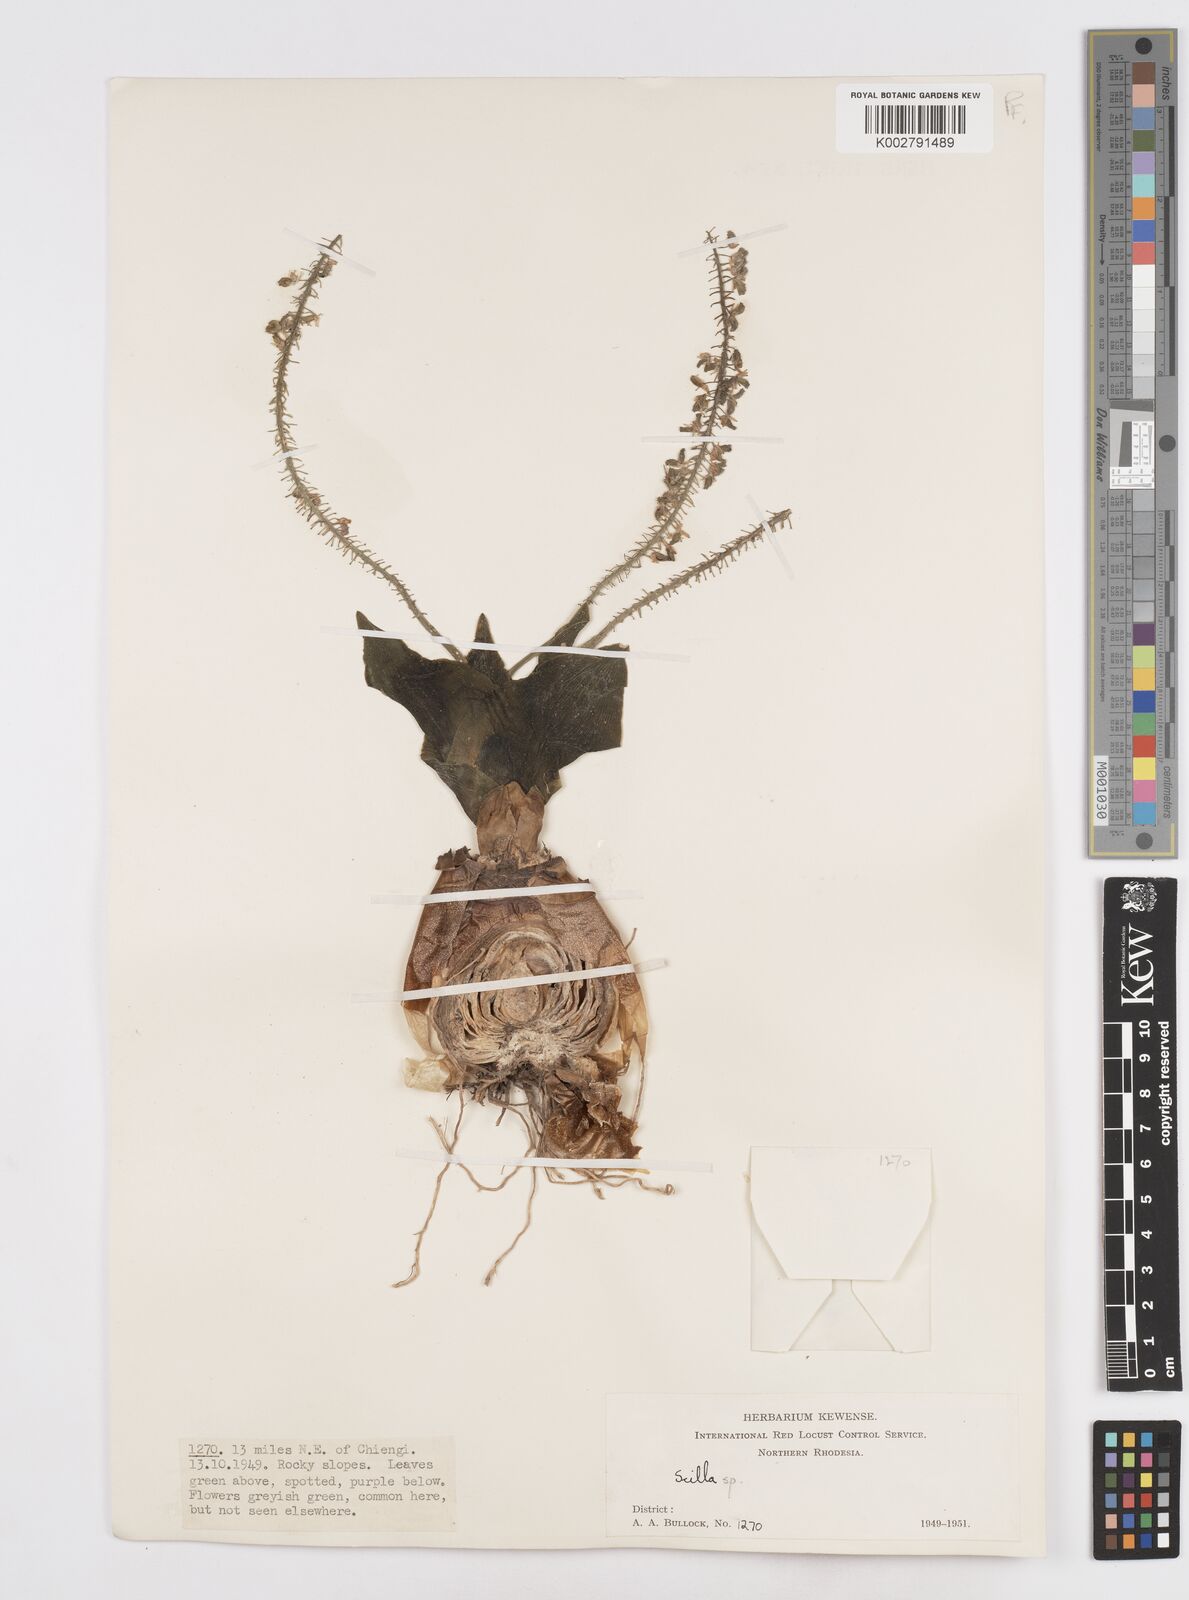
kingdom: Plantae
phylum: Tracheophyta
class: Liliopsida
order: Asparagales
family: Asparagaceae
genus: Scilla
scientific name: Scilla
